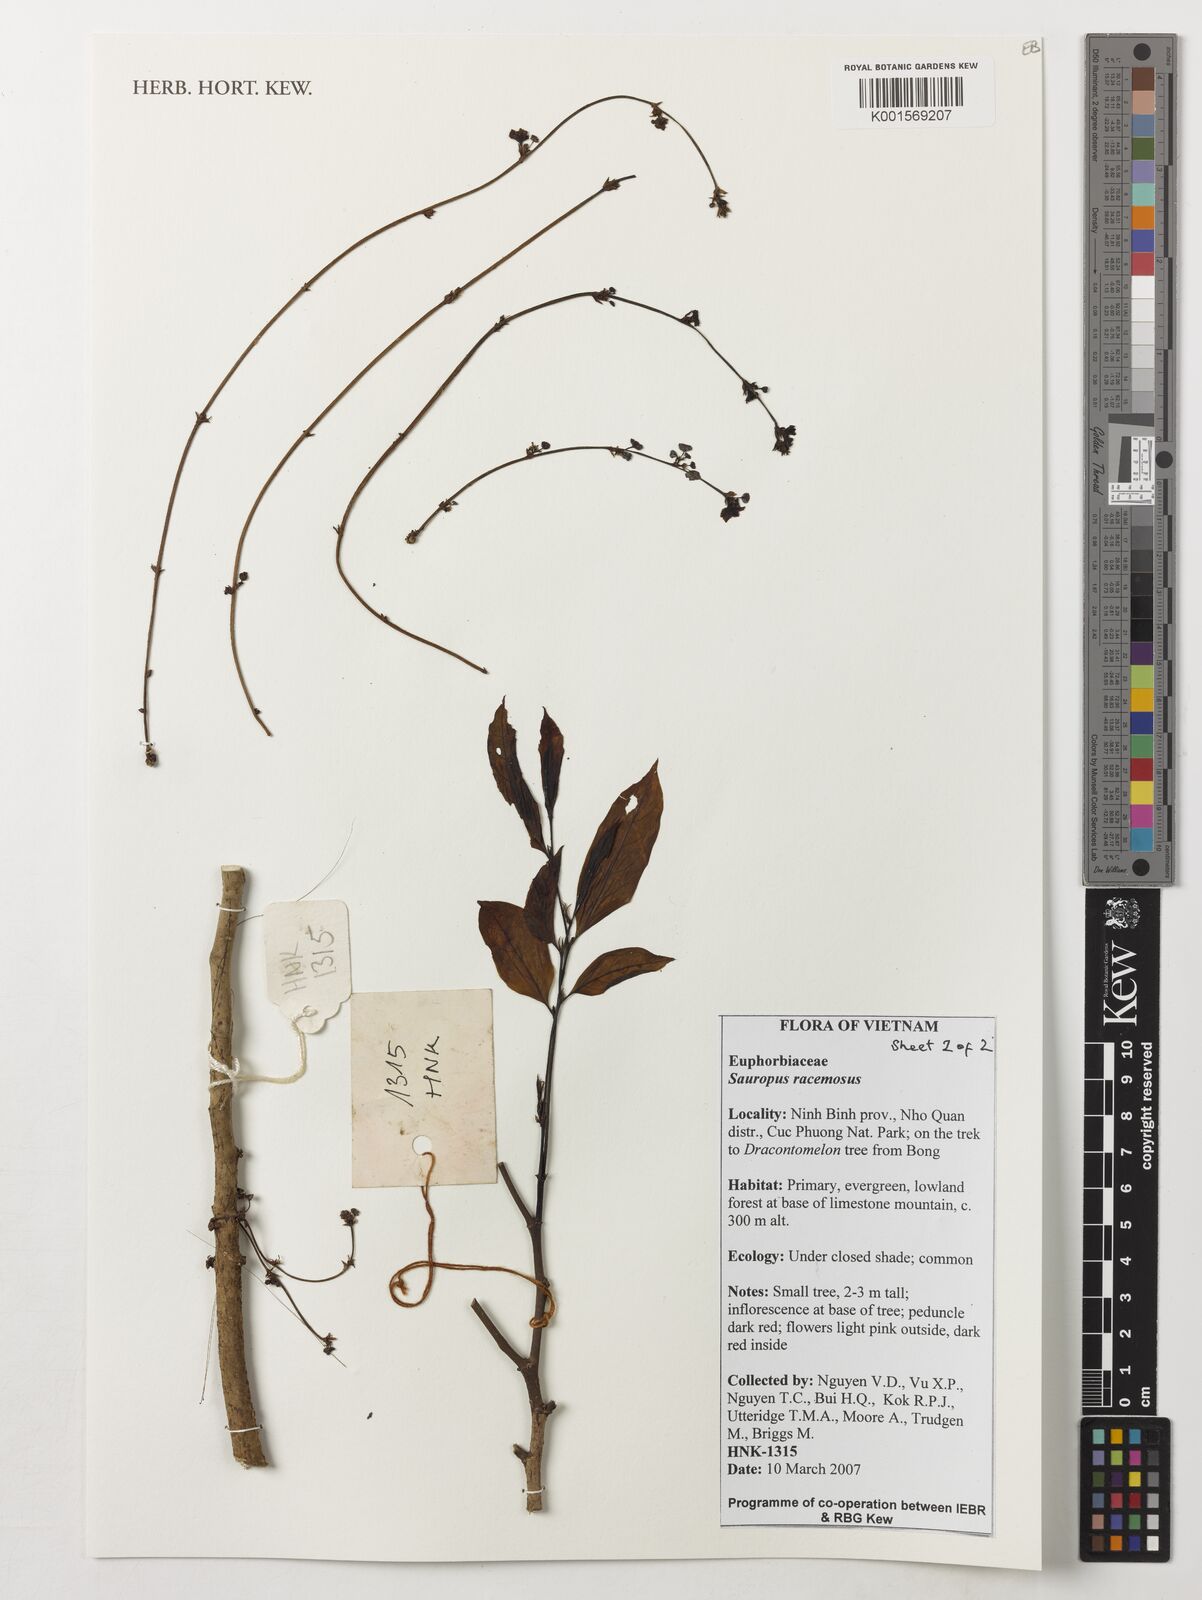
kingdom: Plantae
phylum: Tracheophyta
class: Magnoliopsida
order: Malpighiales
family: Phyllanthaceae
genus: Breynia
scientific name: Breynia beillei
